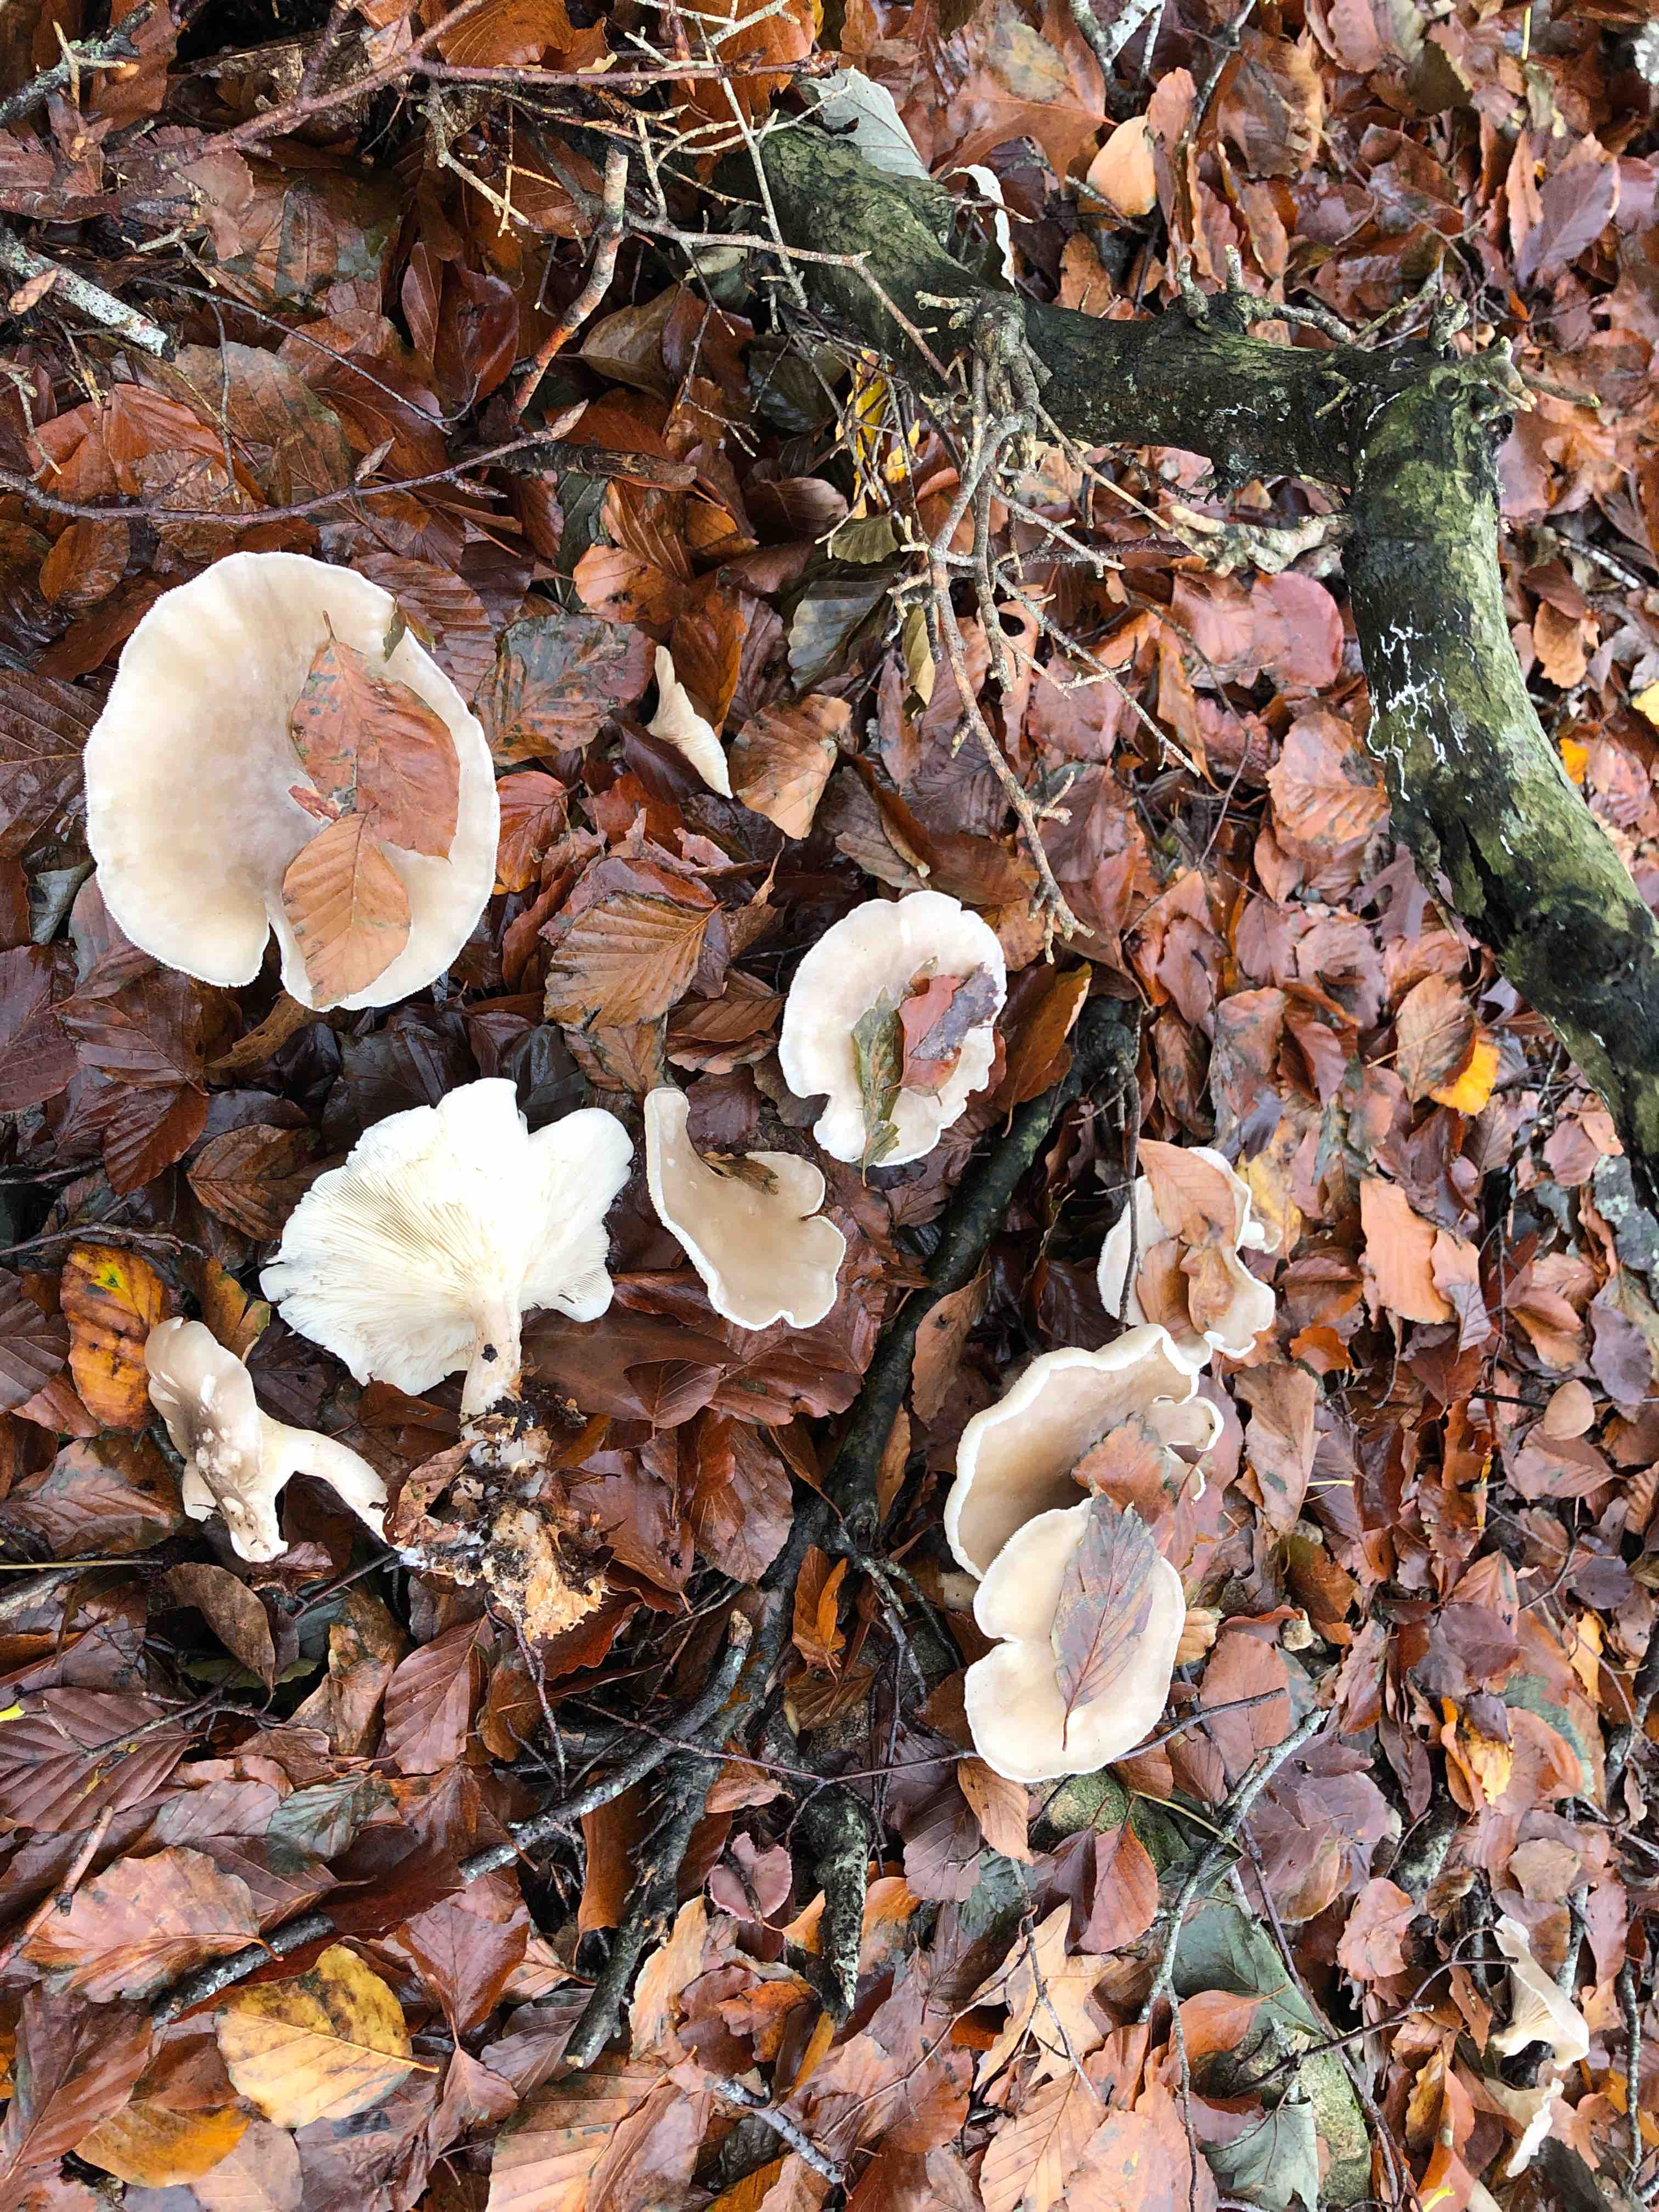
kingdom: Fungi
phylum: Basidiomycota
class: Agaricomycetes
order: Agaricales
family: Tricholomataceae
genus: Clitocybe
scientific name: Clitocybe nebularis
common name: tåge-tragthat
